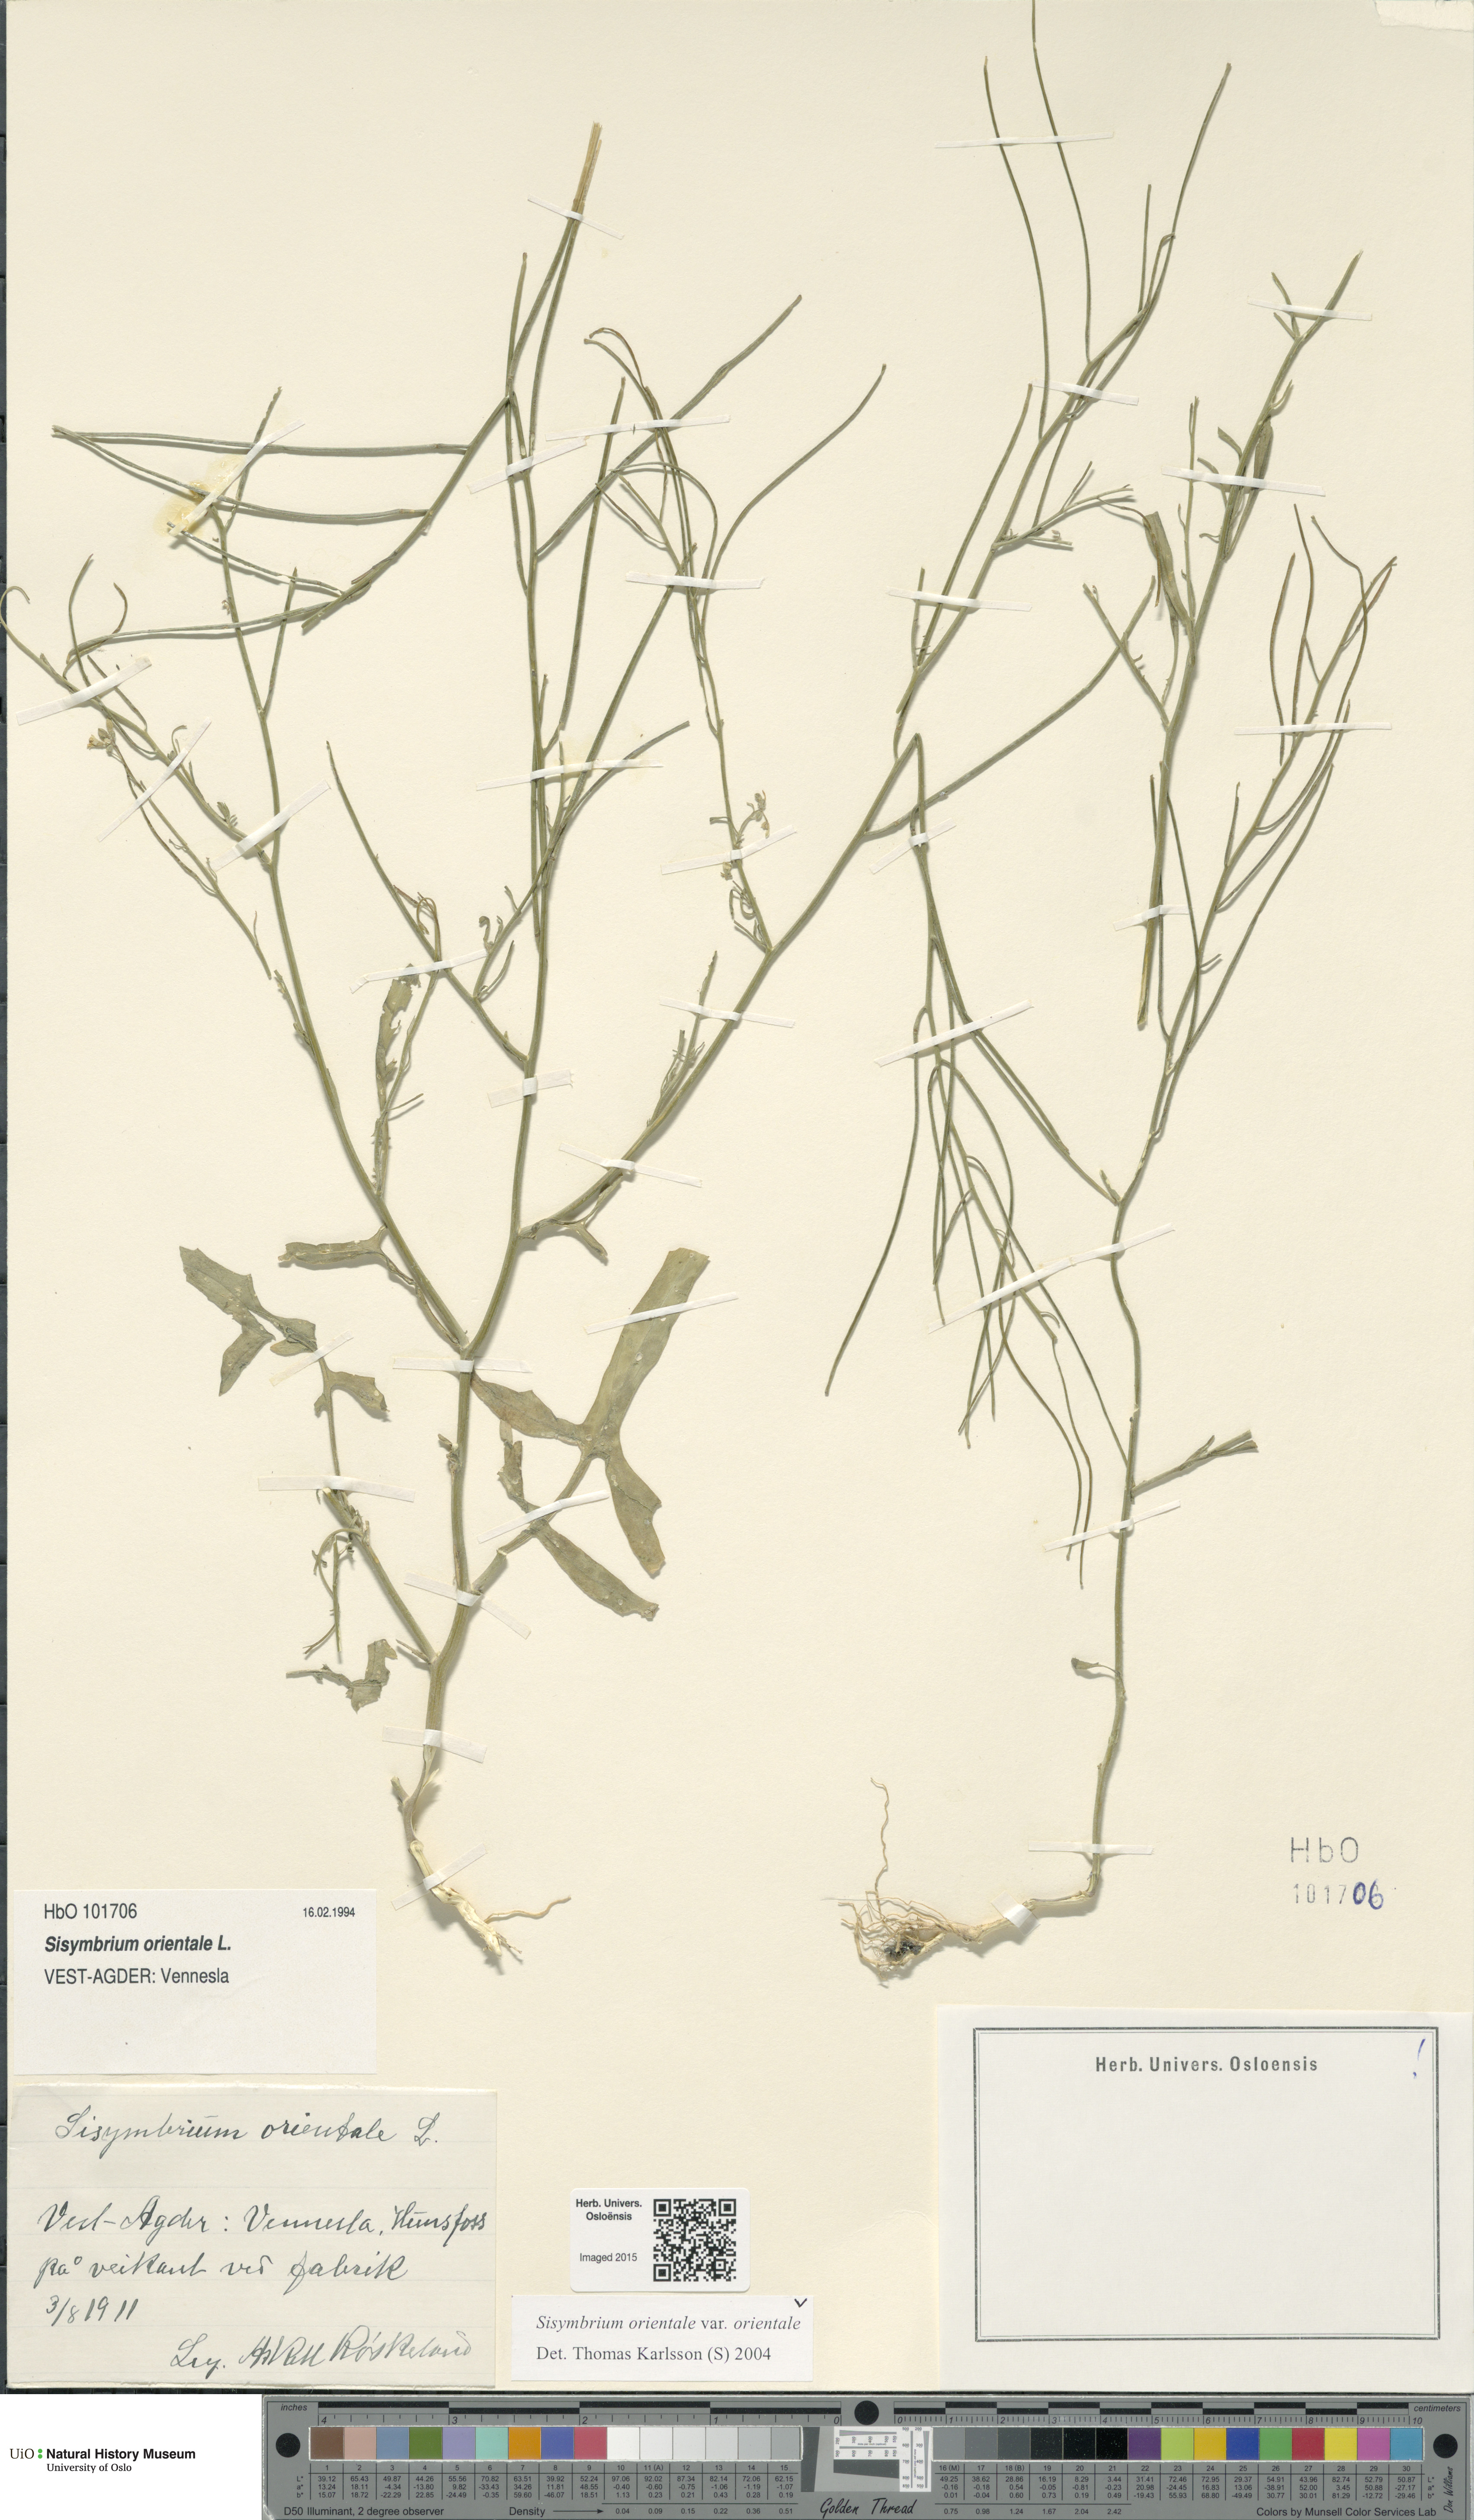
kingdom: Plantae
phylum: Tracheophyta
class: Magnoliopsida
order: Brassicales
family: Brassicaceae
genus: Sisymbrium
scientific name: Sisymbrium orientale
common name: Eastern rocket
